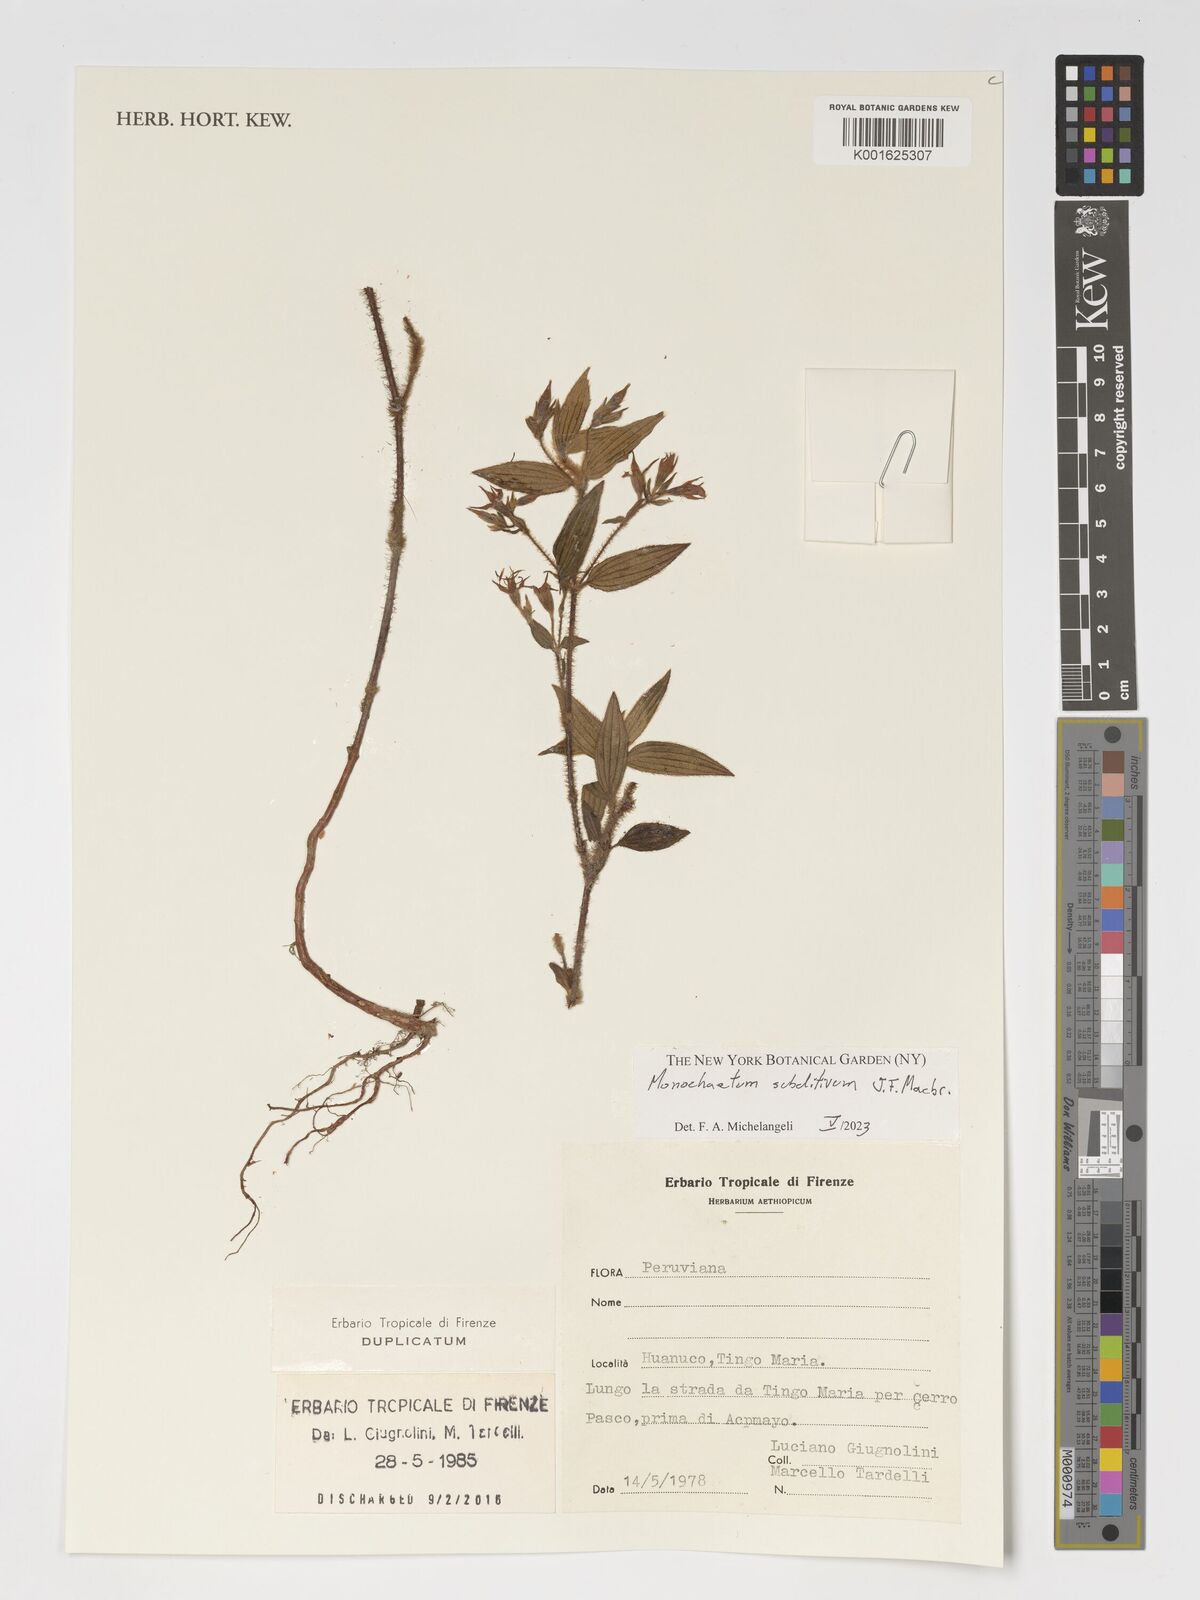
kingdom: Plantae
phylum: Tracheophyta
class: Magnoliopsida
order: Myrtales
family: Melastomataceae
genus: Monochaetum
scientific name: Monochaetum subditivum
